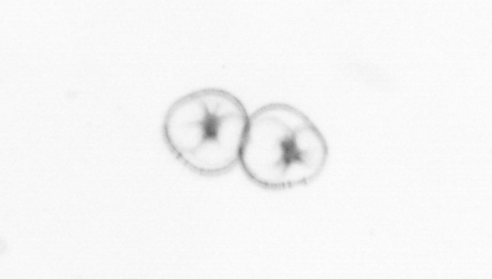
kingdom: Chromista
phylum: Myzozoa
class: Dinophyceae
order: Noctilucales
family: Noctilucaceae
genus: Noctiluca
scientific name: Noctiluca scintillans
